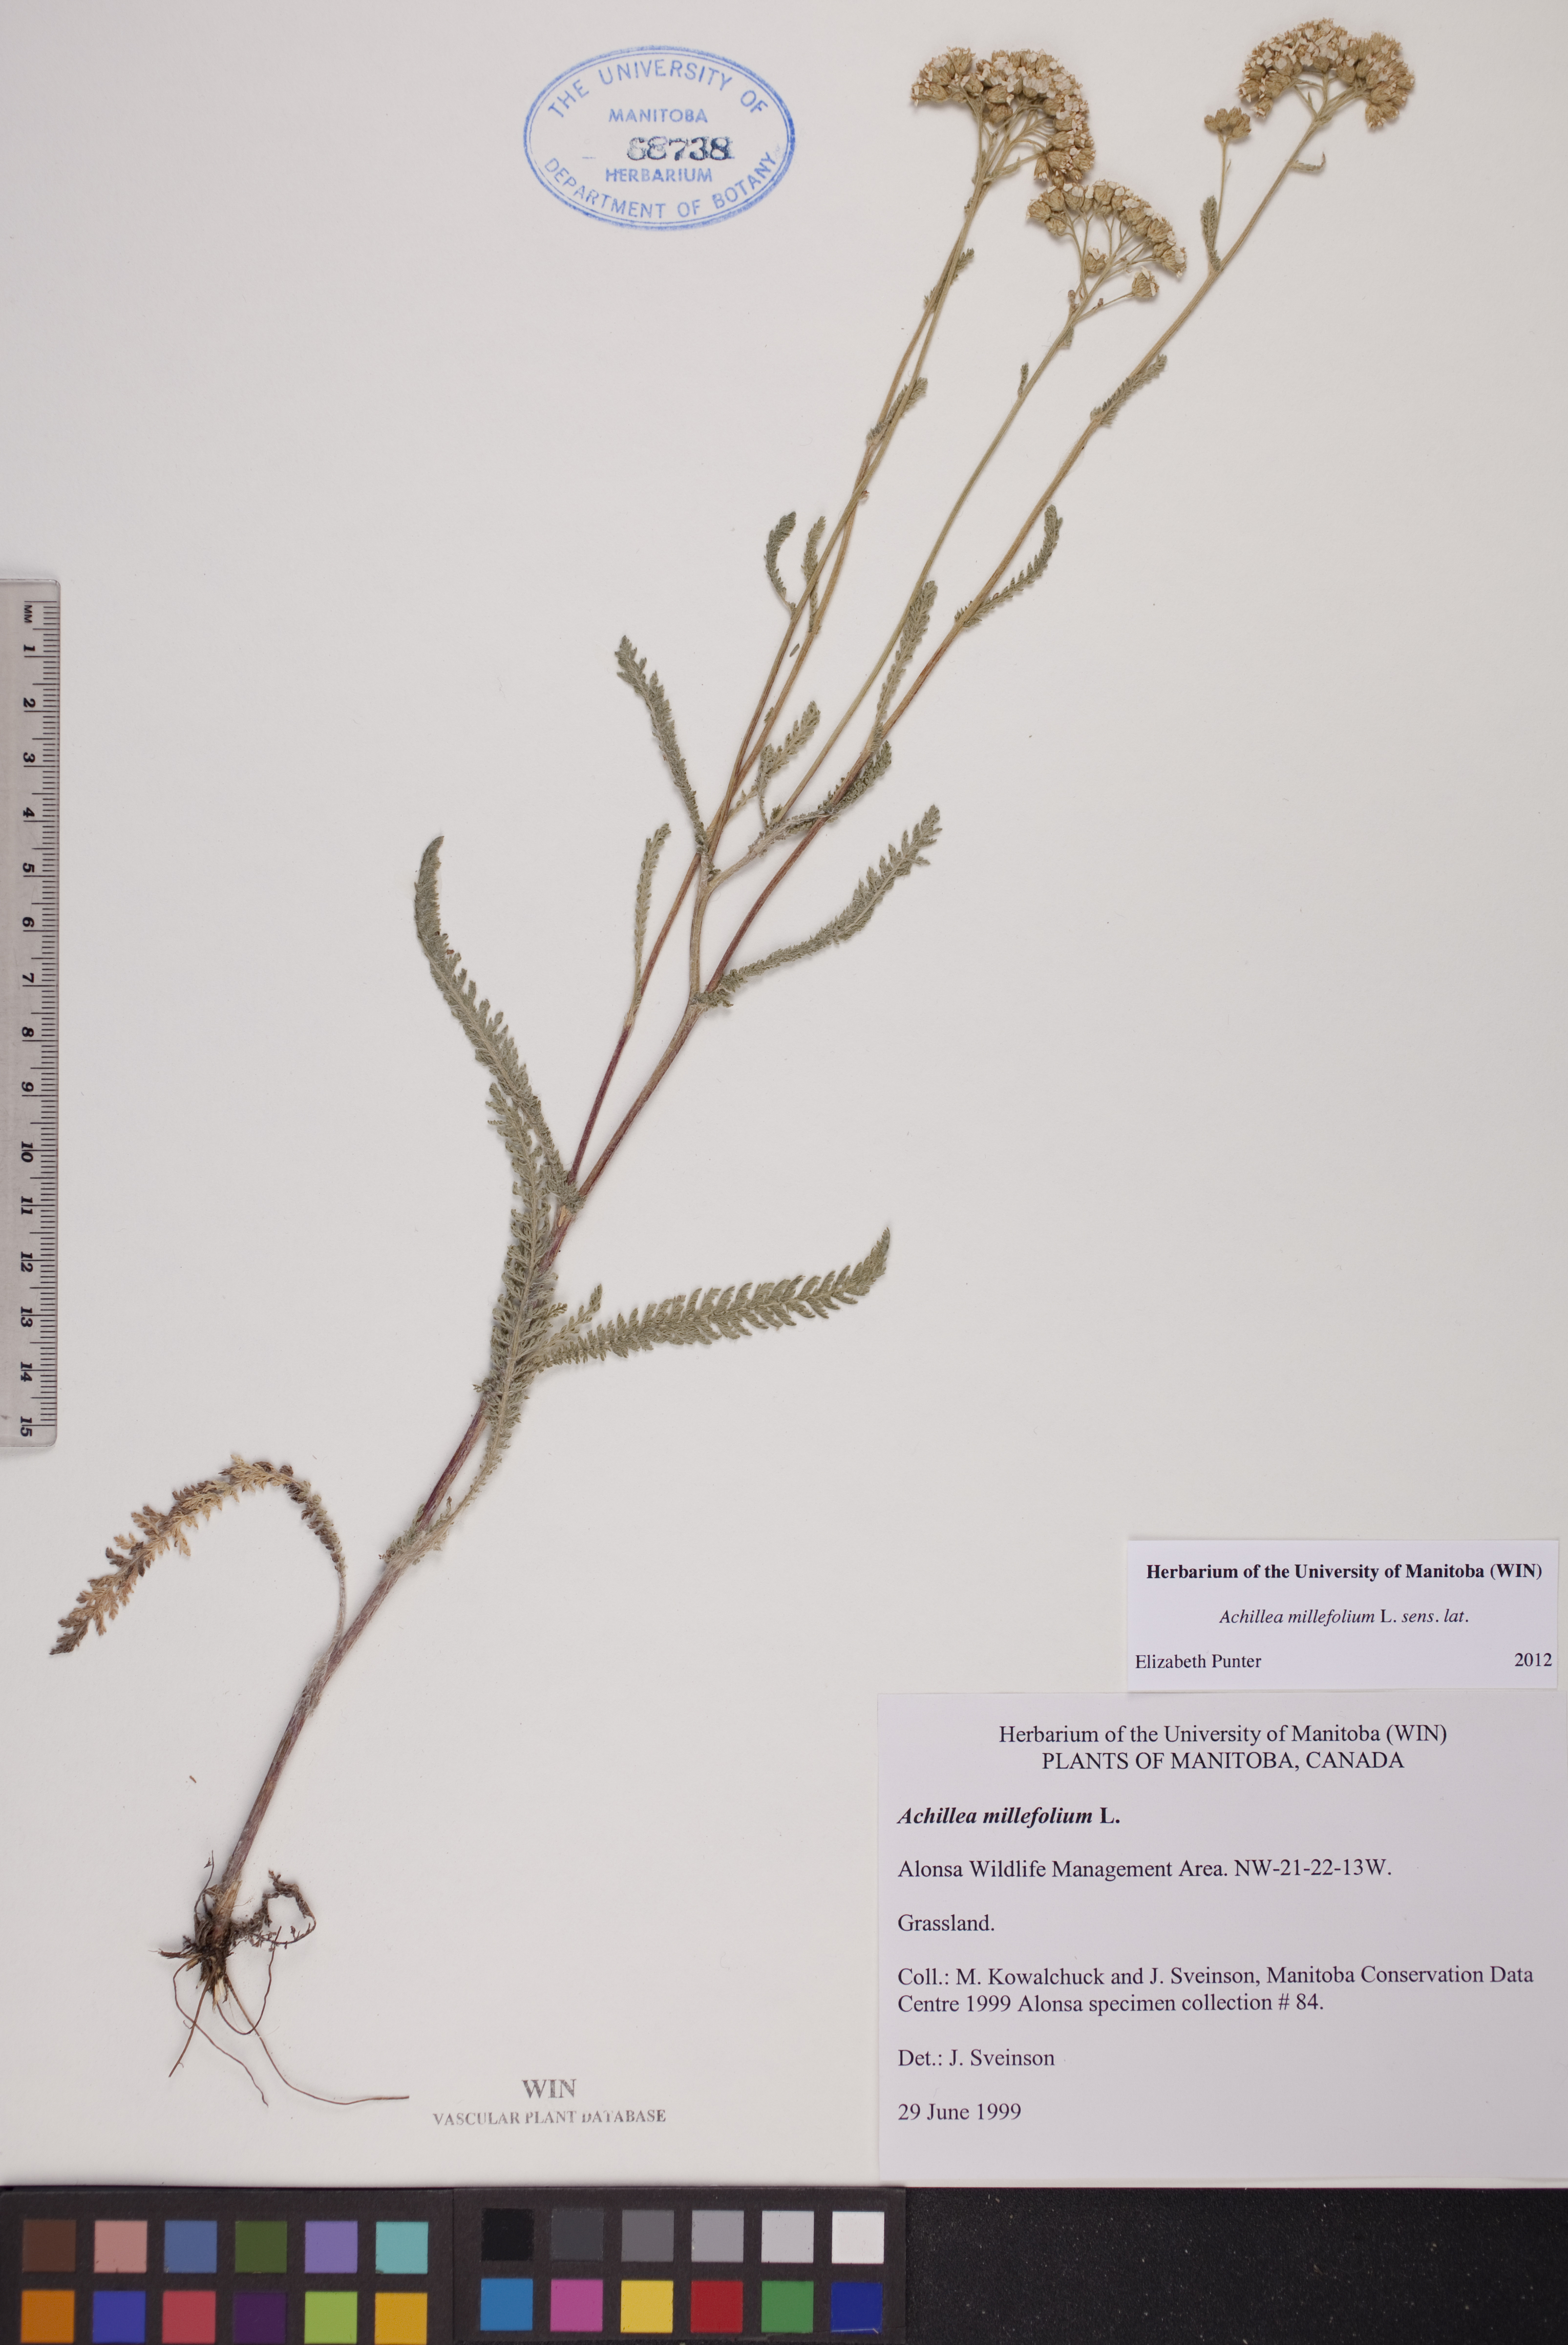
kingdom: Plantae
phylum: Tracheophyta
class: Magnoliopsida
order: Asterales
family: Asteraceae
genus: Achillea
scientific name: Achillea millefolium
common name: Yarrow
